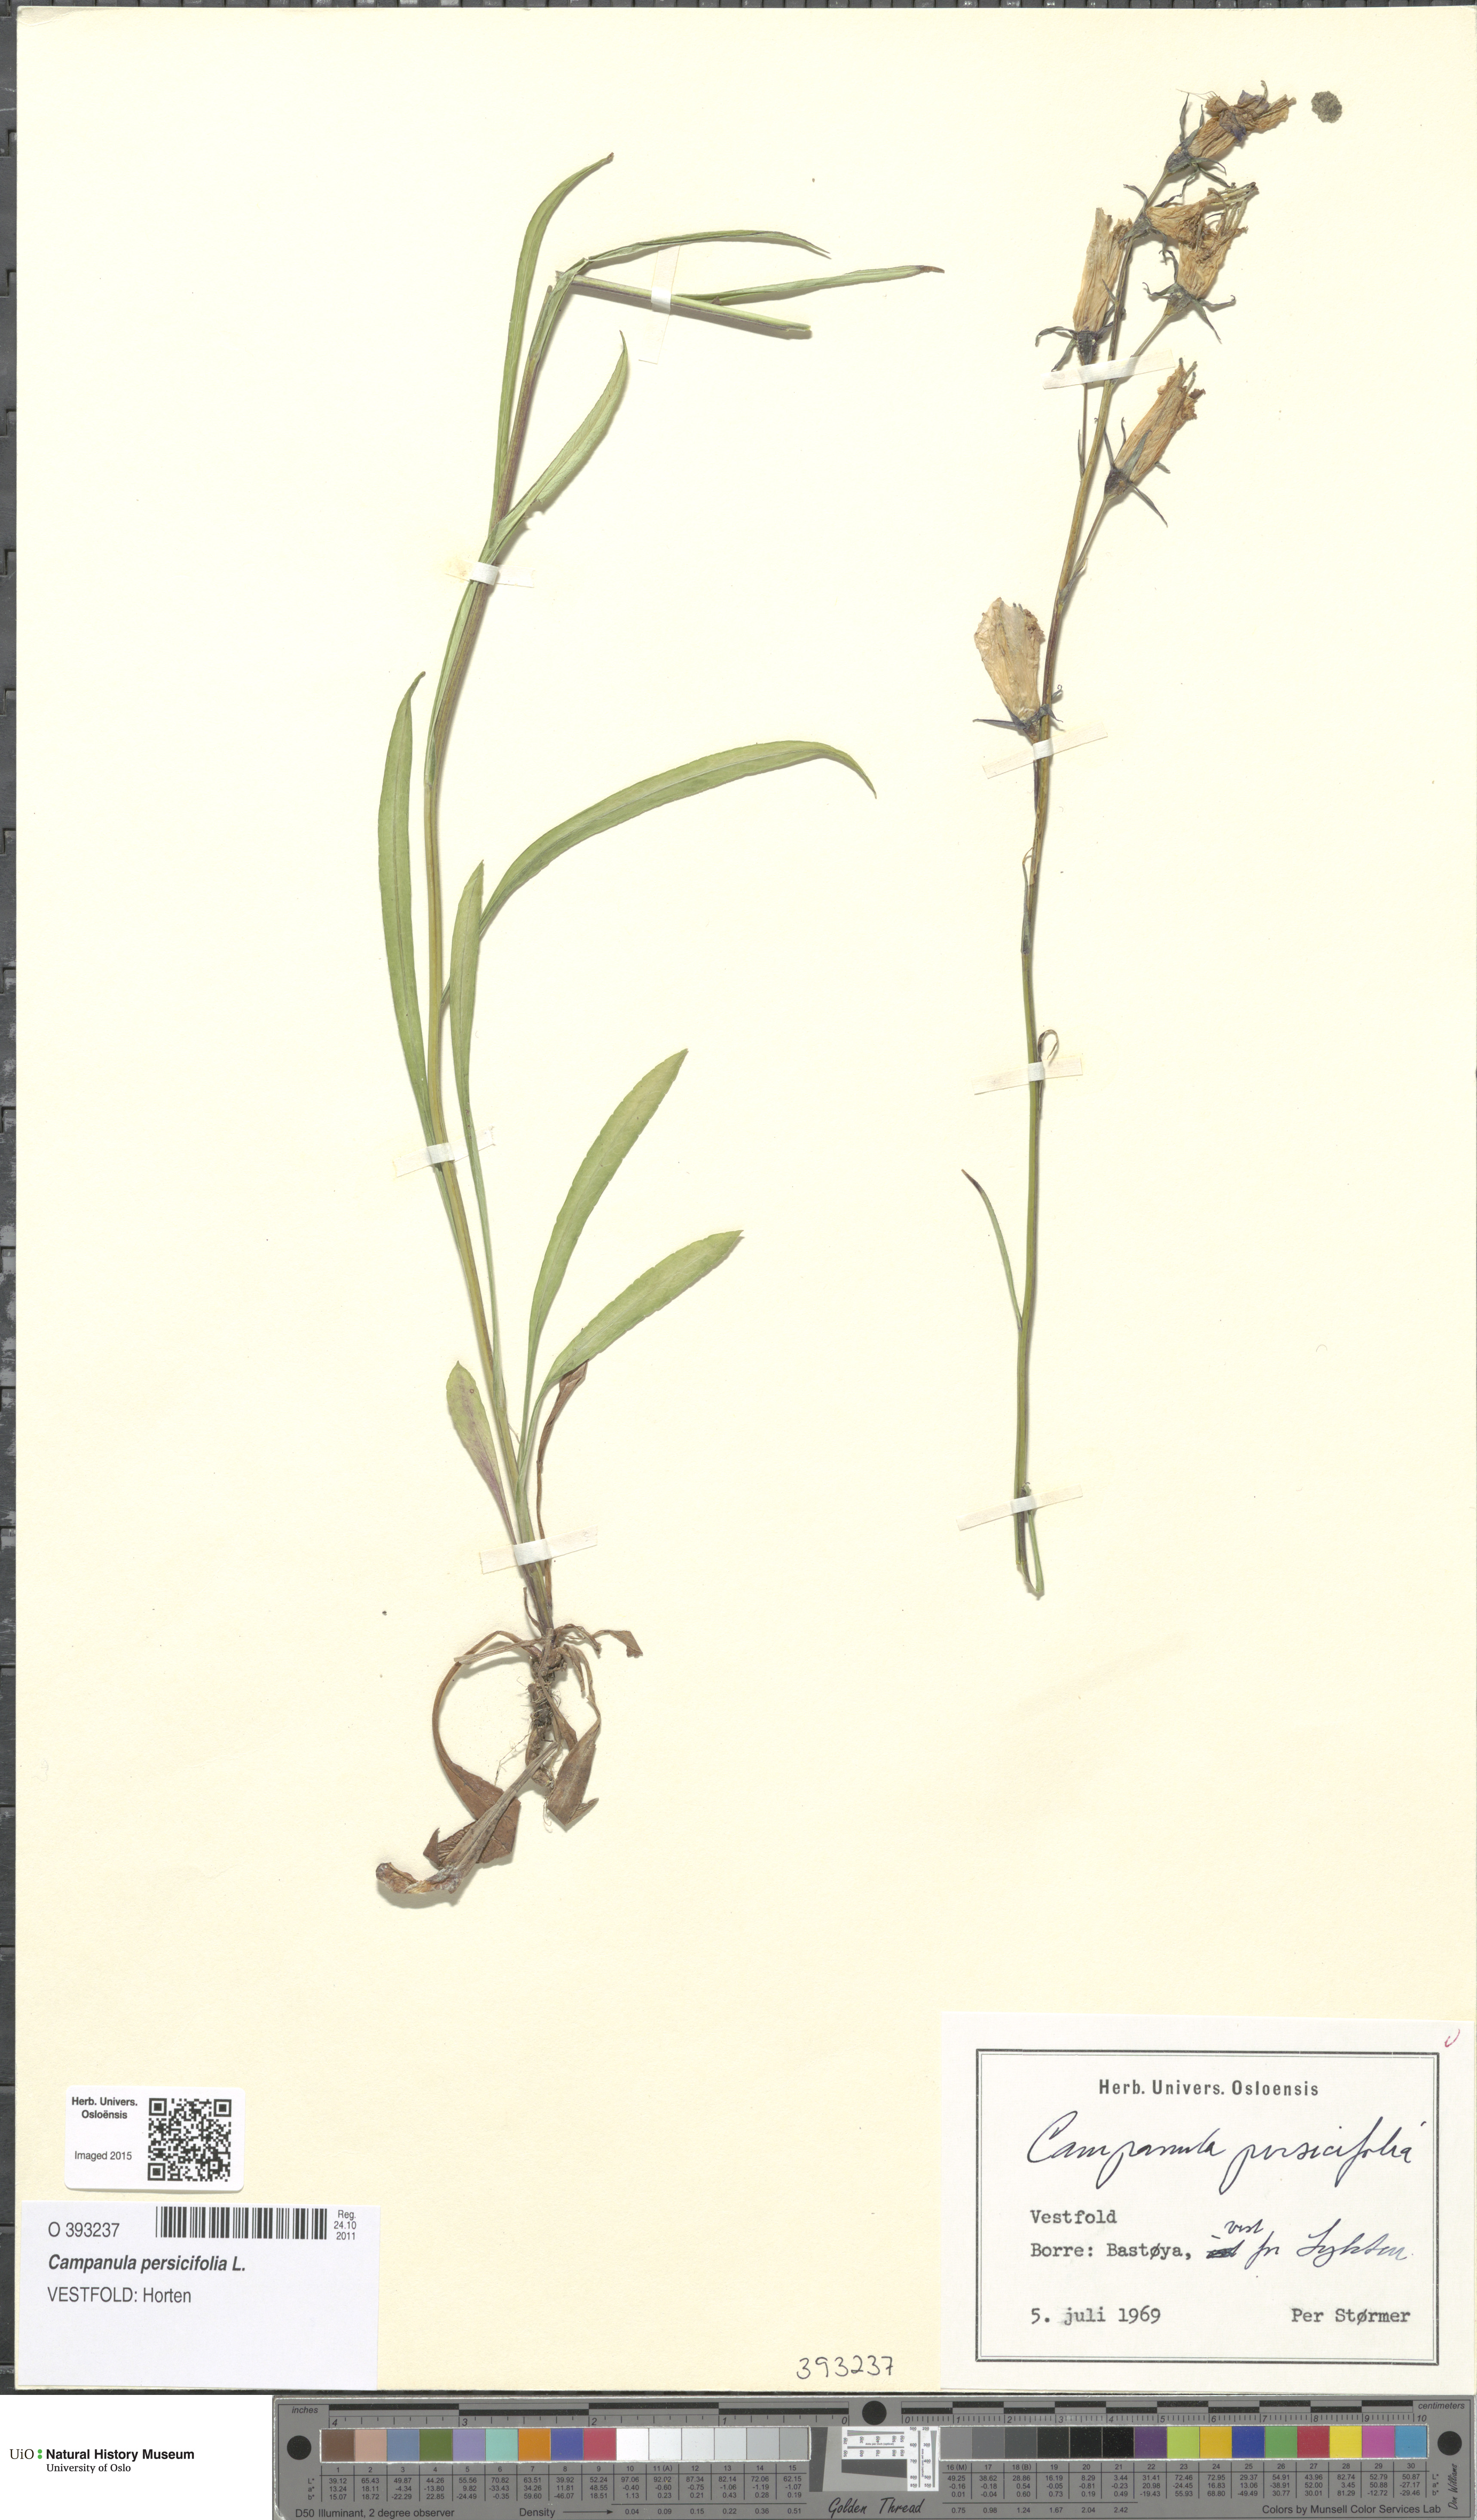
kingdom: Plantae
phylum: Tracheophyta
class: Magnoliopsida
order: Asterales
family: Campanulaceae
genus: Campanula
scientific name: Campanula persicifolia
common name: Peach-leaved bellflower
